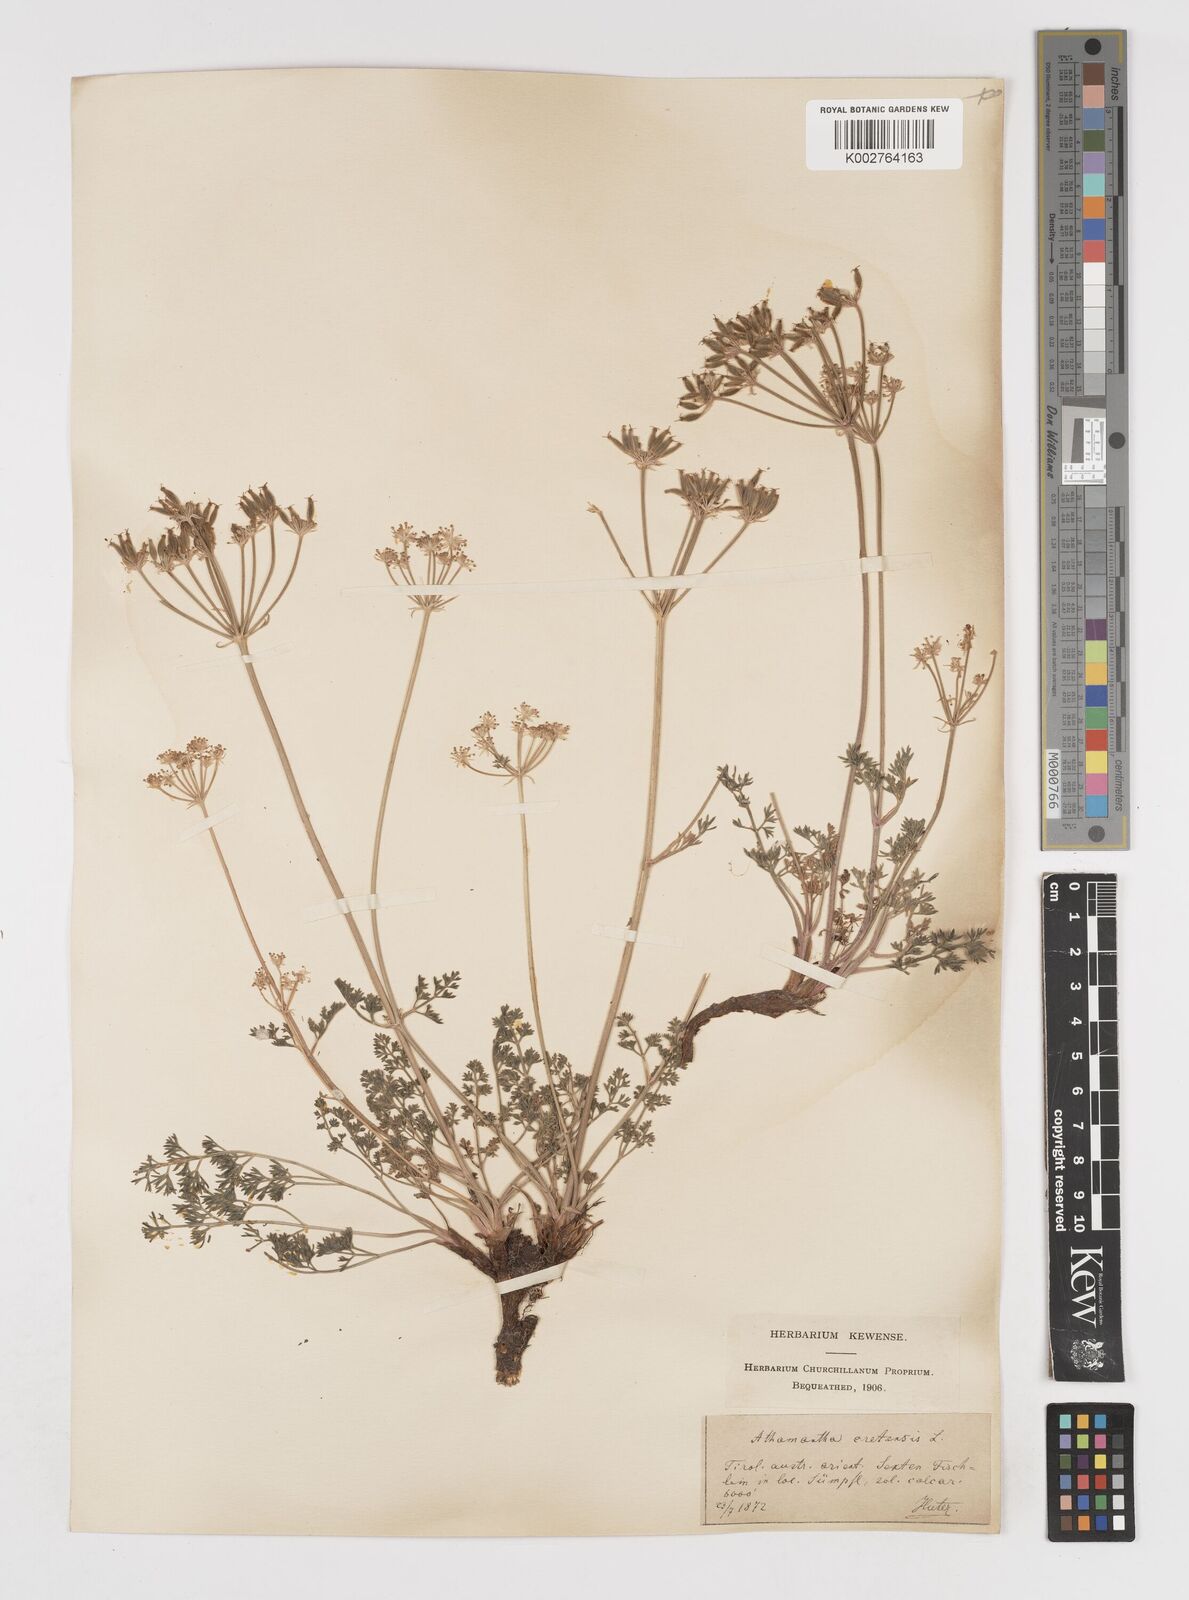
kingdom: Plantae
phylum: Tracheophyta
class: Magnoliopsida
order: Apiales
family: Apiaceae
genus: Athamanta
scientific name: Athamanta cretensis
